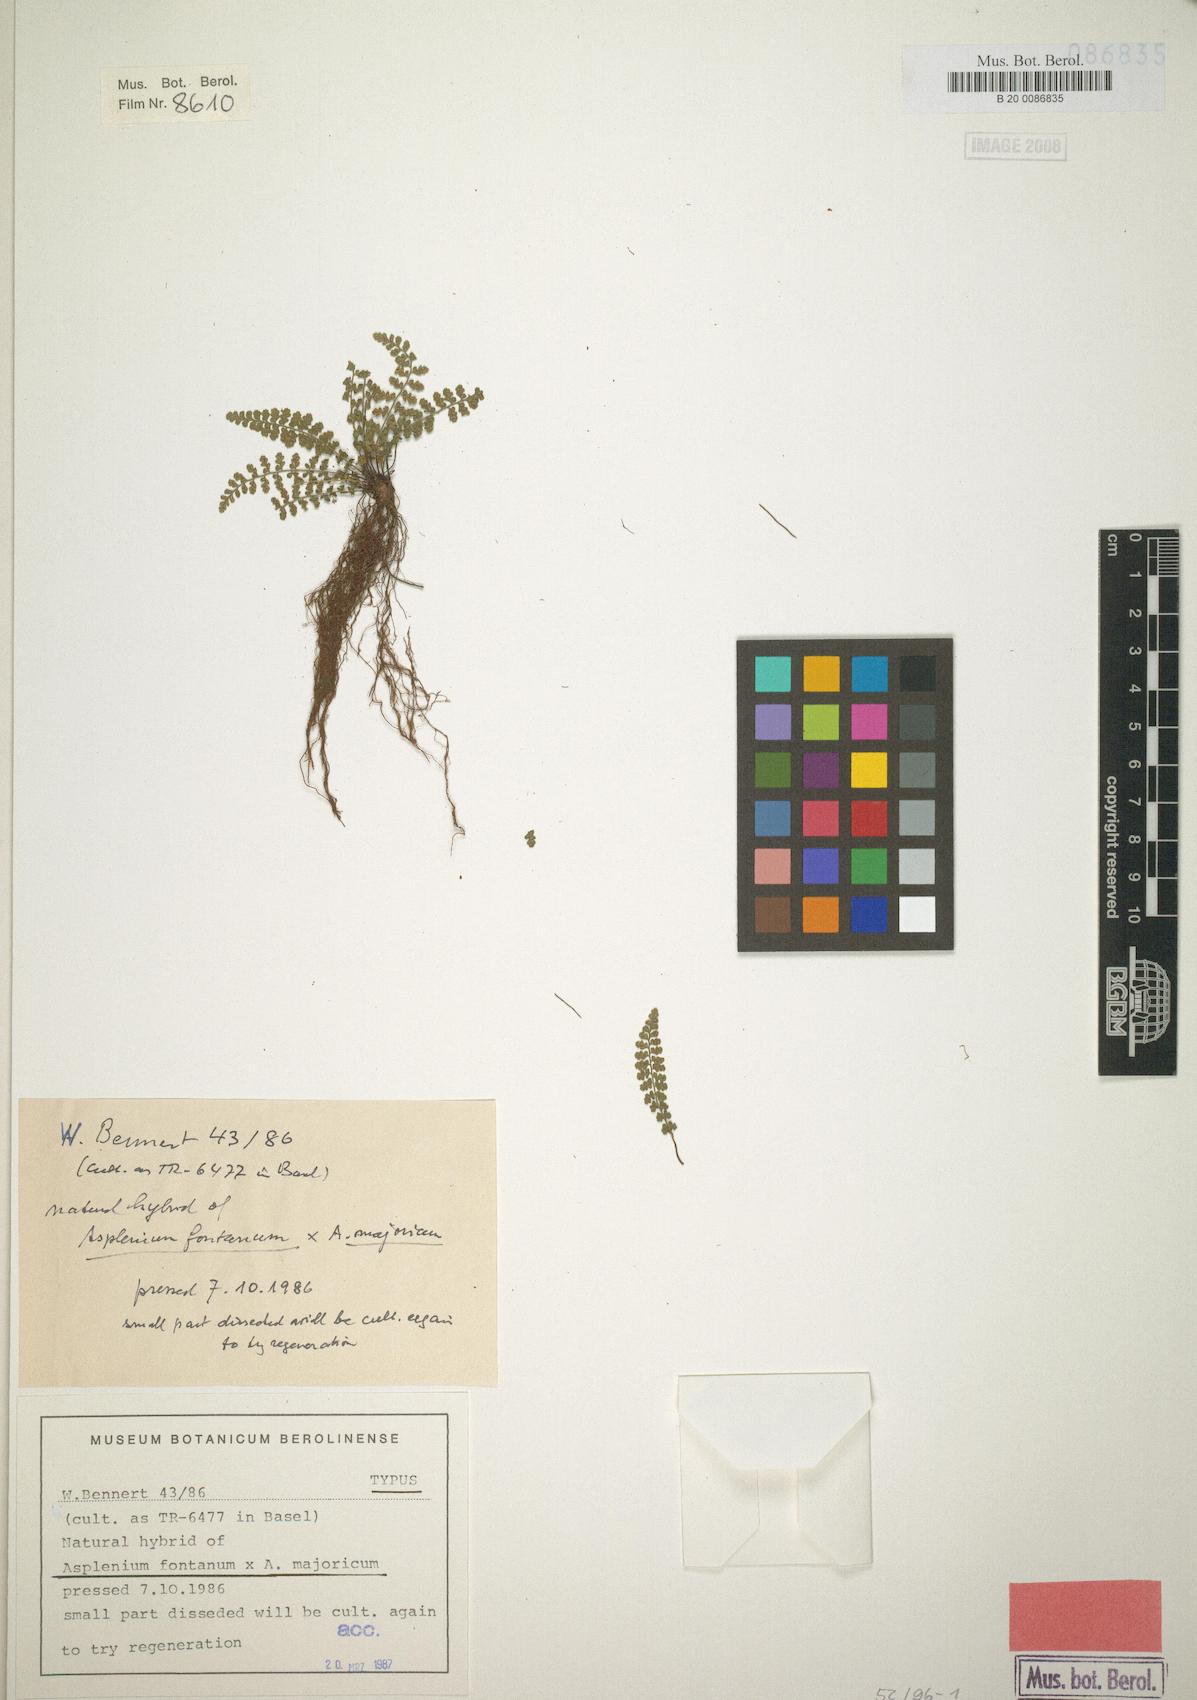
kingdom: Plantae
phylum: Tracheophyta
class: Polypodiopsida
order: Polypodiales
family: Aspleniaceae
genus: Asplenium
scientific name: Asplenium reichsteinii
